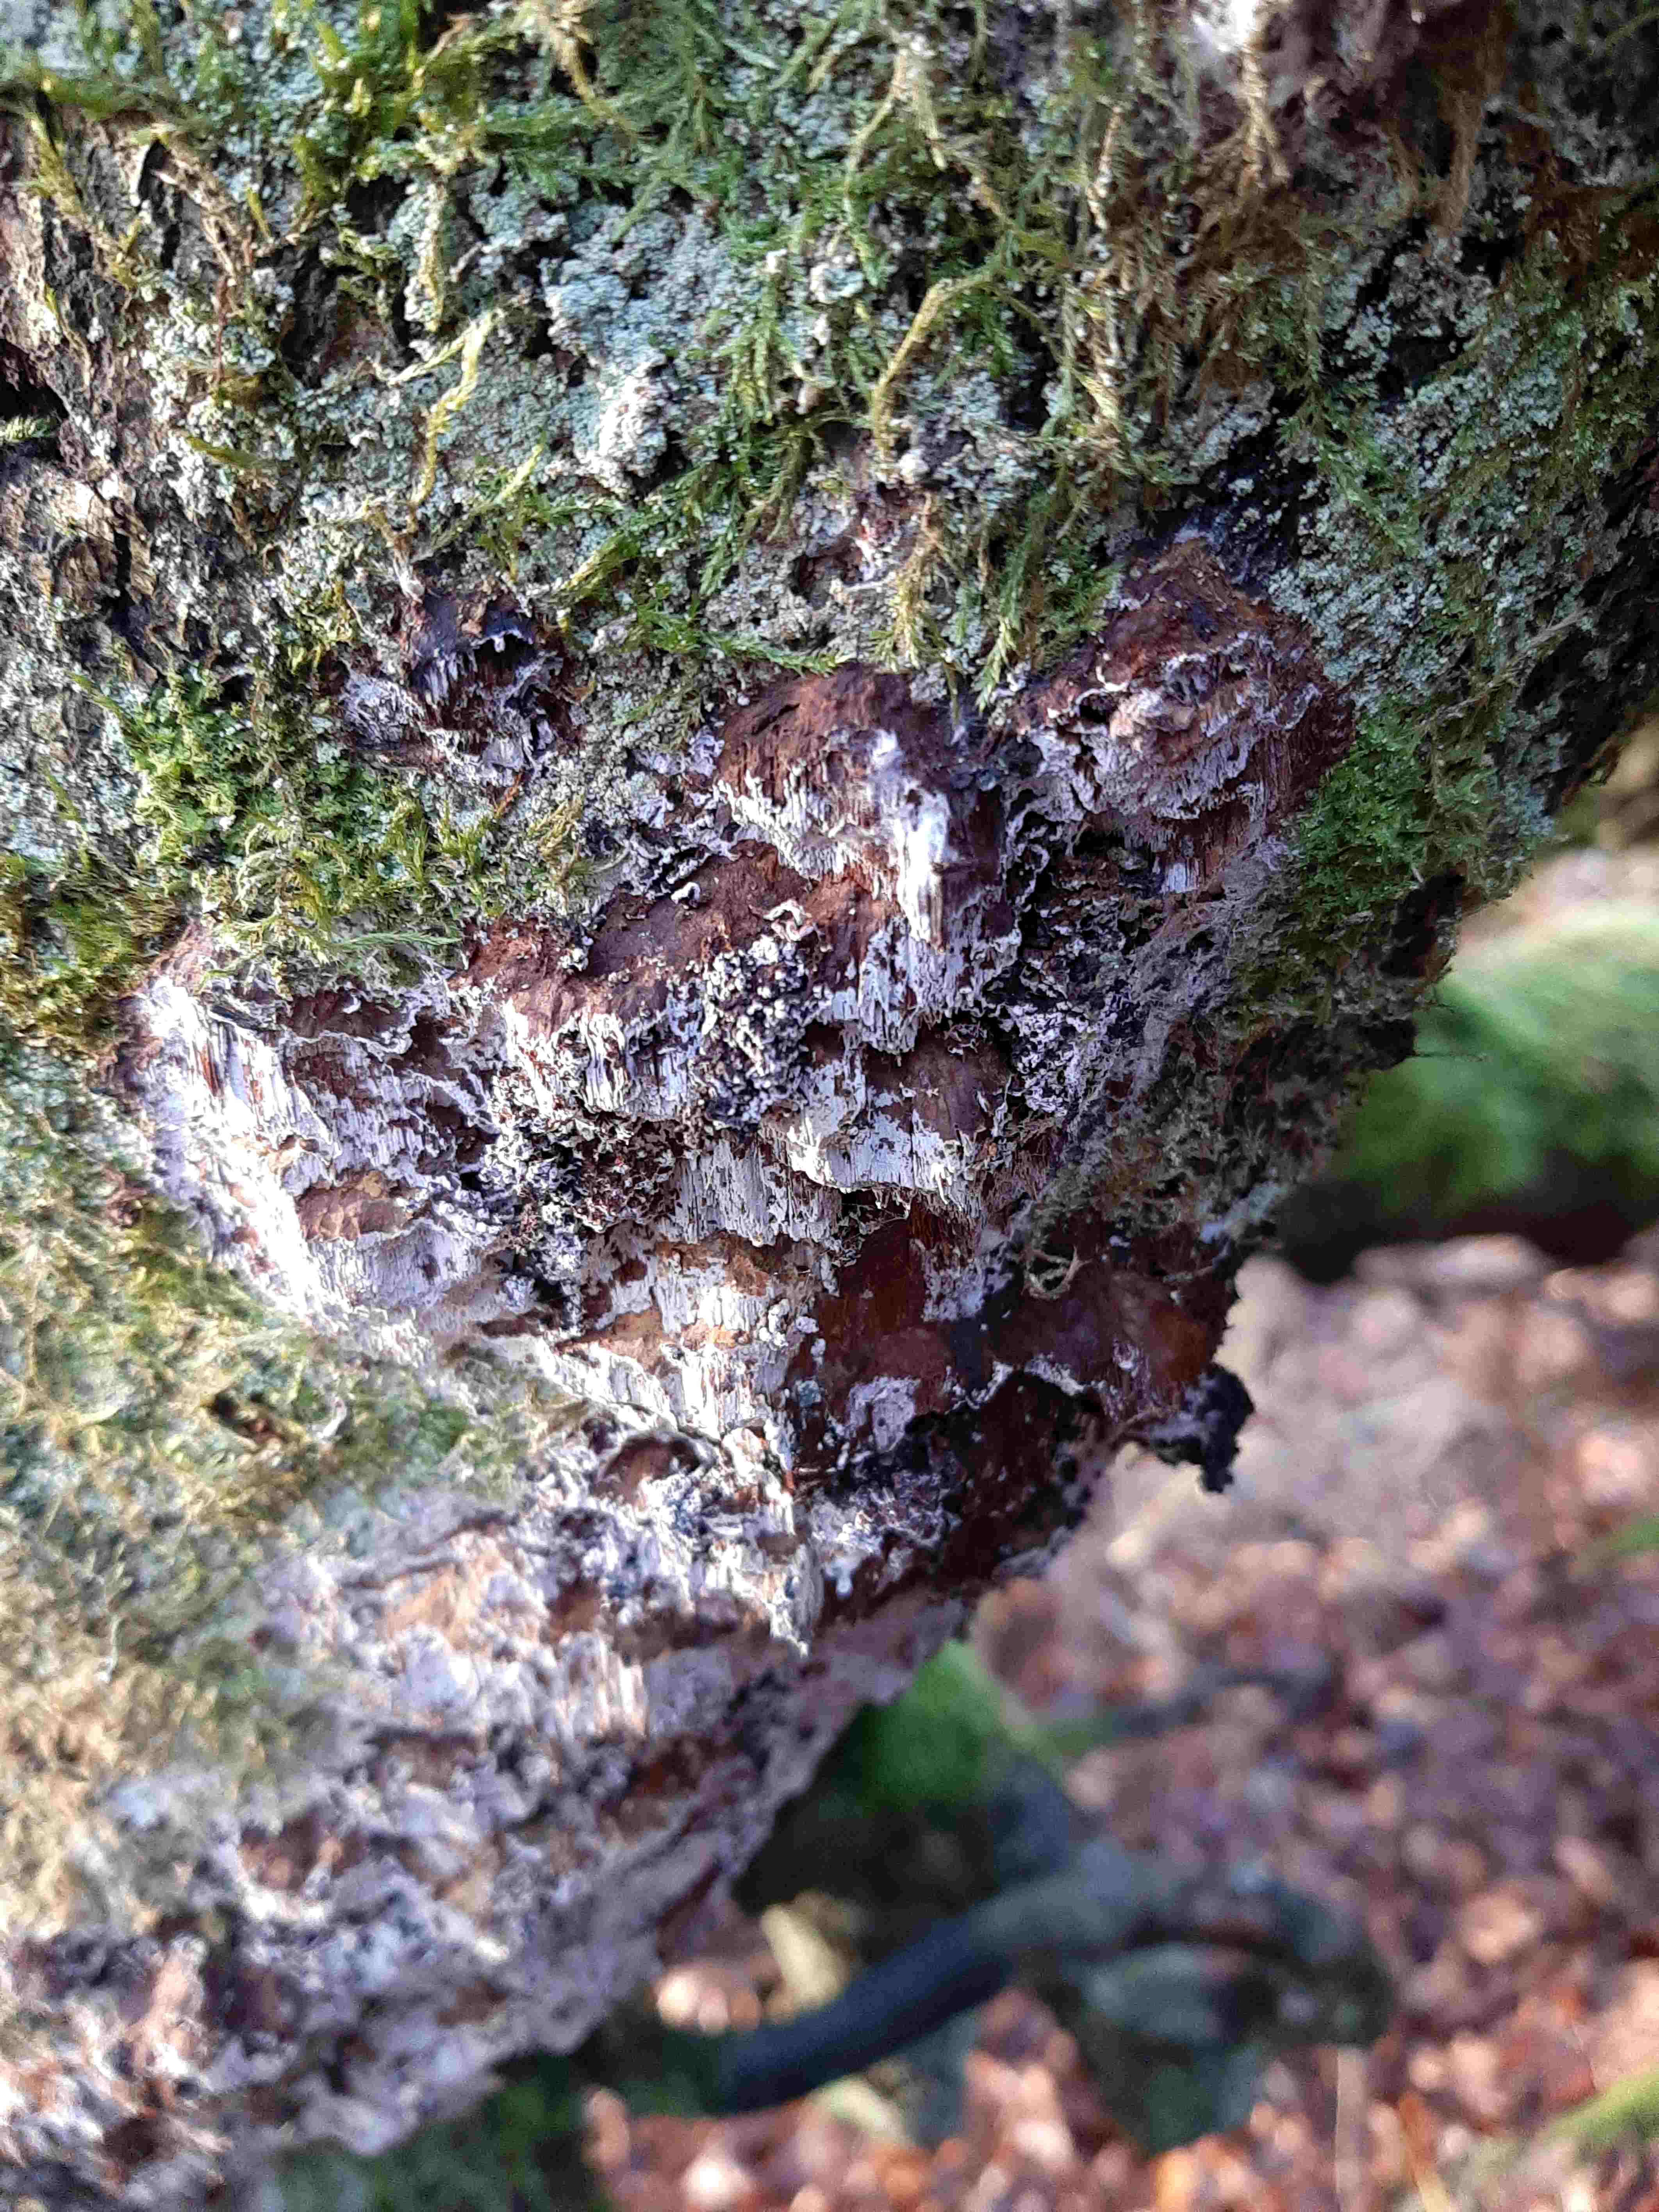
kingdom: Fungi
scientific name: Fungi
